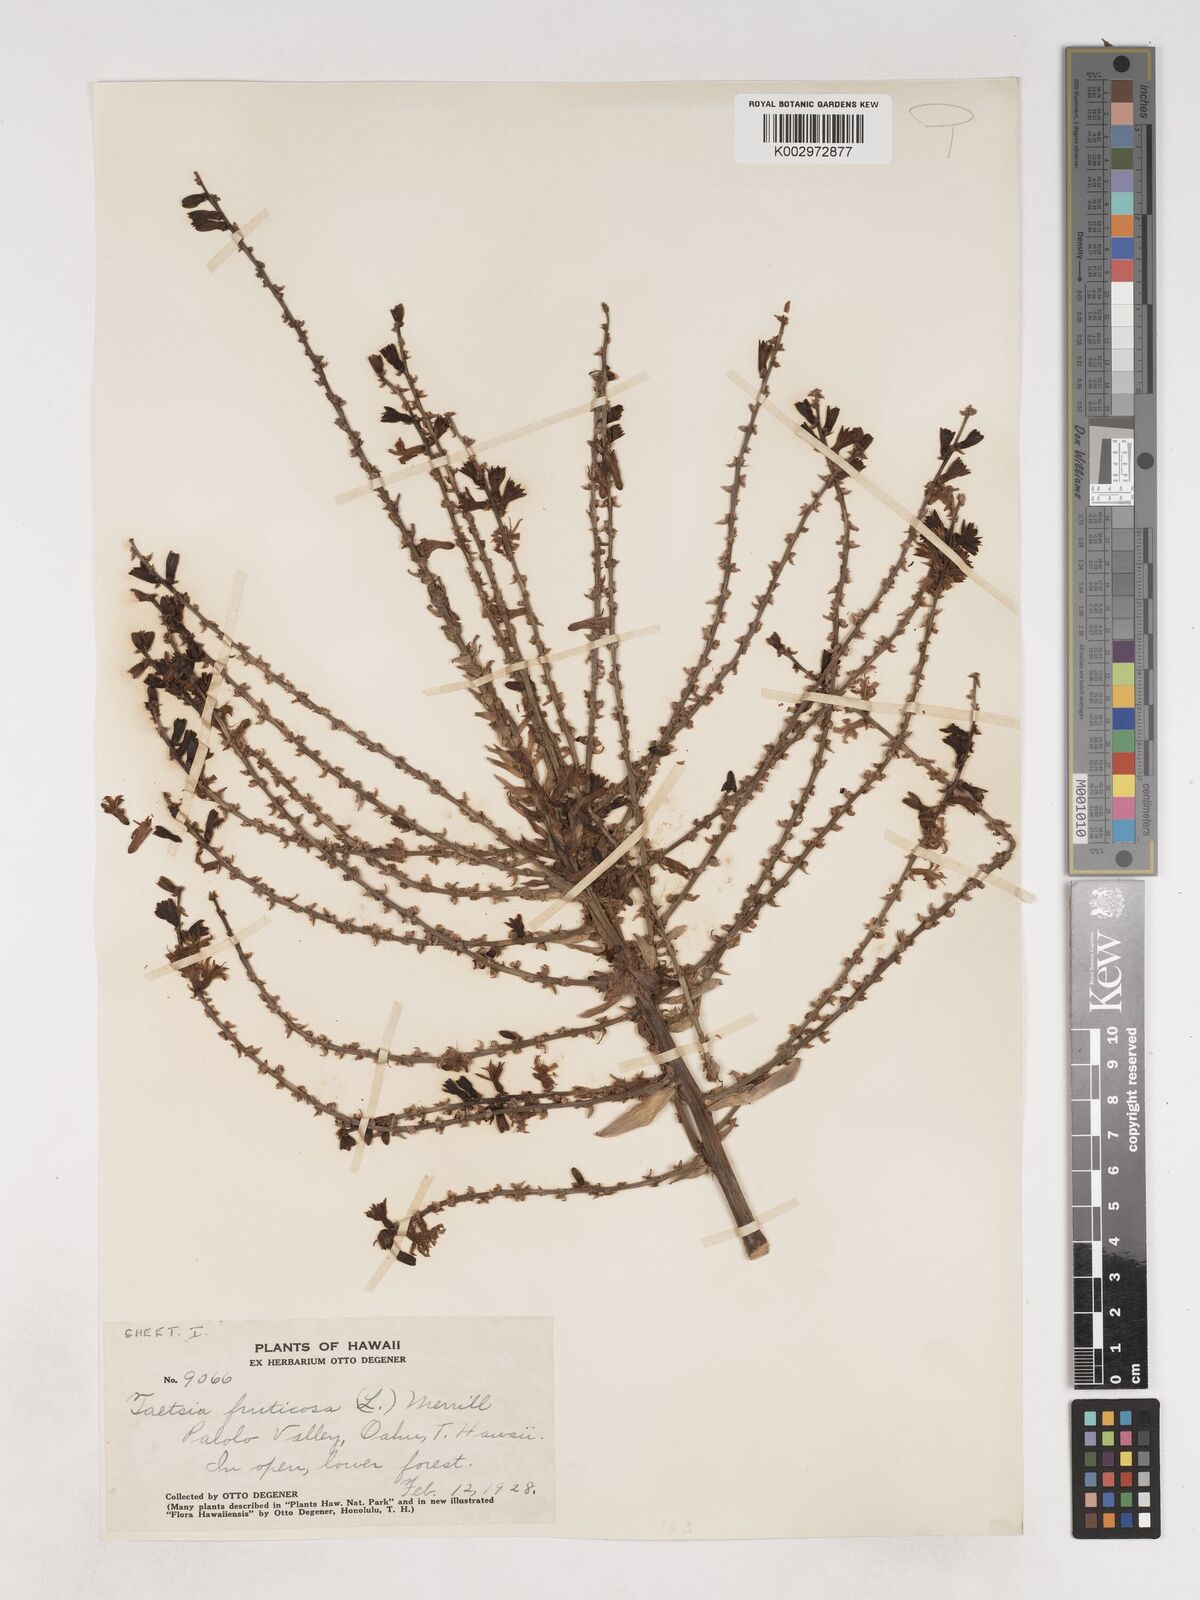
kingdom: Plantae
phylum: Tracheophyta
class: Liliopsida
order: Asparagales
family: Asparagaceae
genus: Cordyline
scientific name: Cordyline fruticosa
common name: Good-luck-plant
